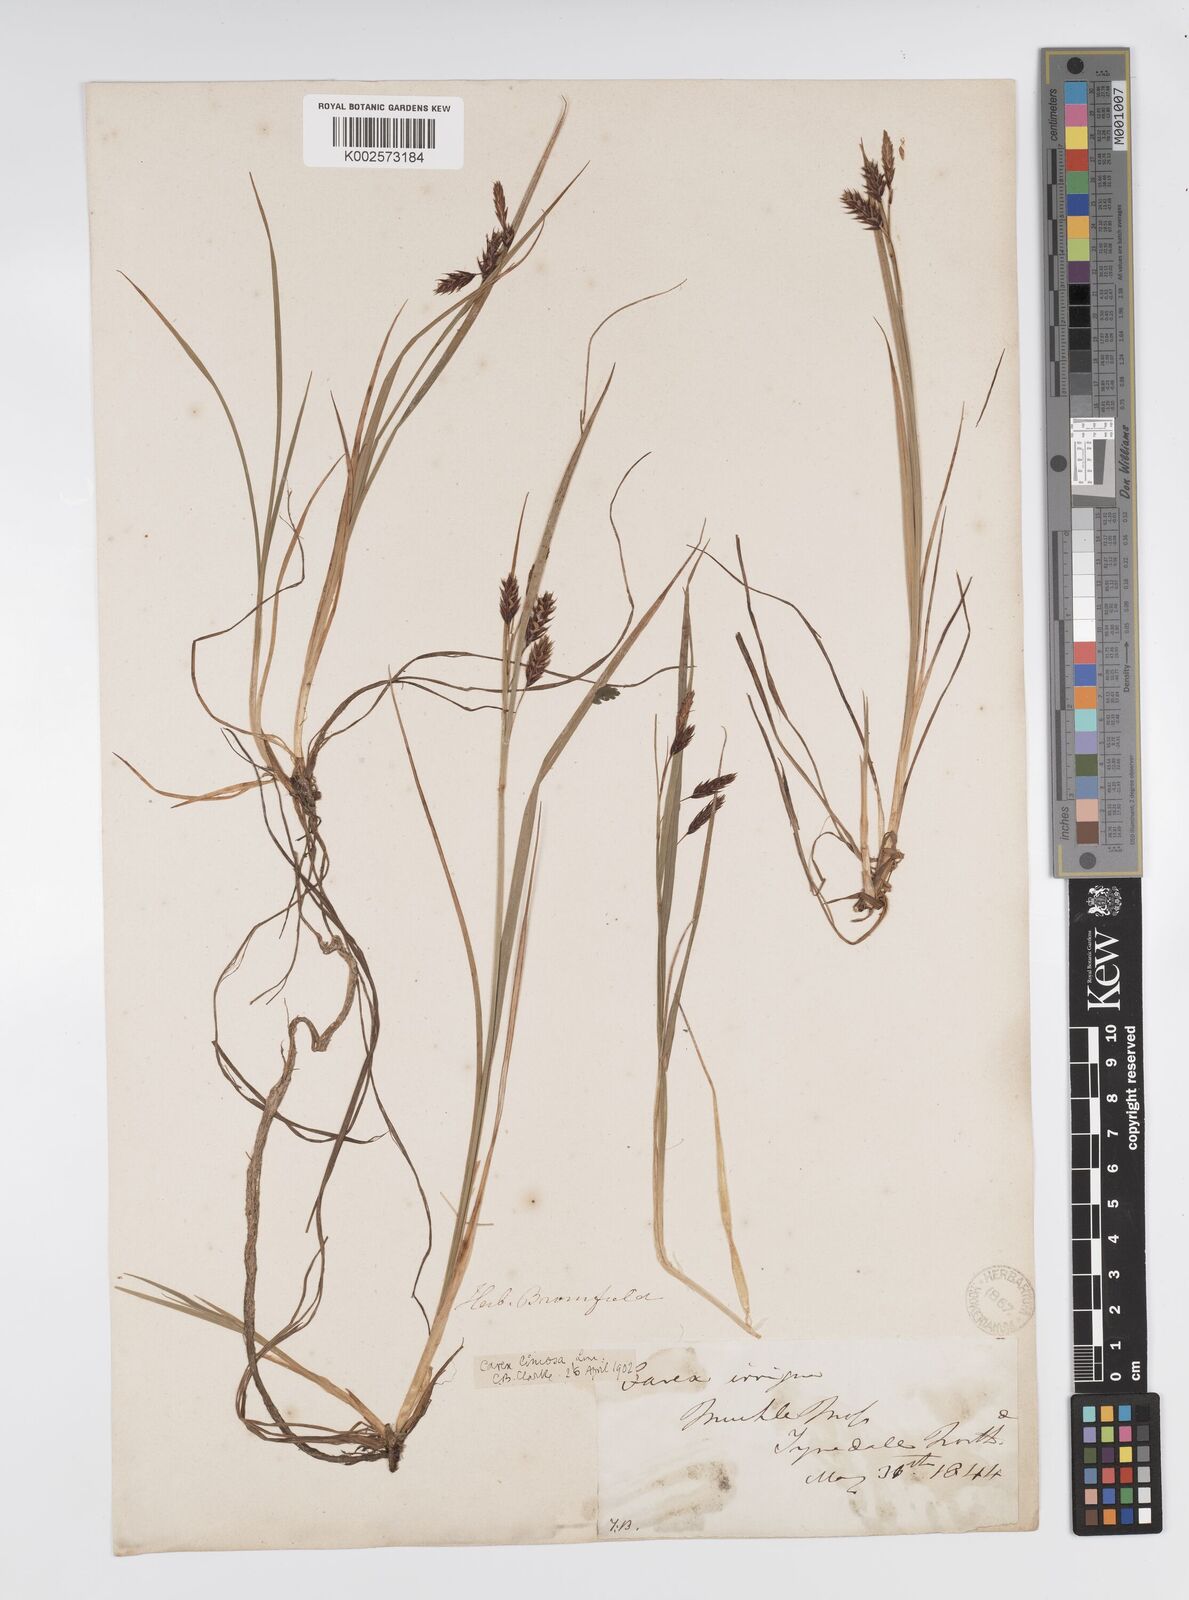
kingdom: Plantae
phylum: Tracheophyta
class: Liliopsida
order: Poales
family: Cyperaceae
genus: Carex
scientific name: Carex magellanica
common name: Bog sedge
